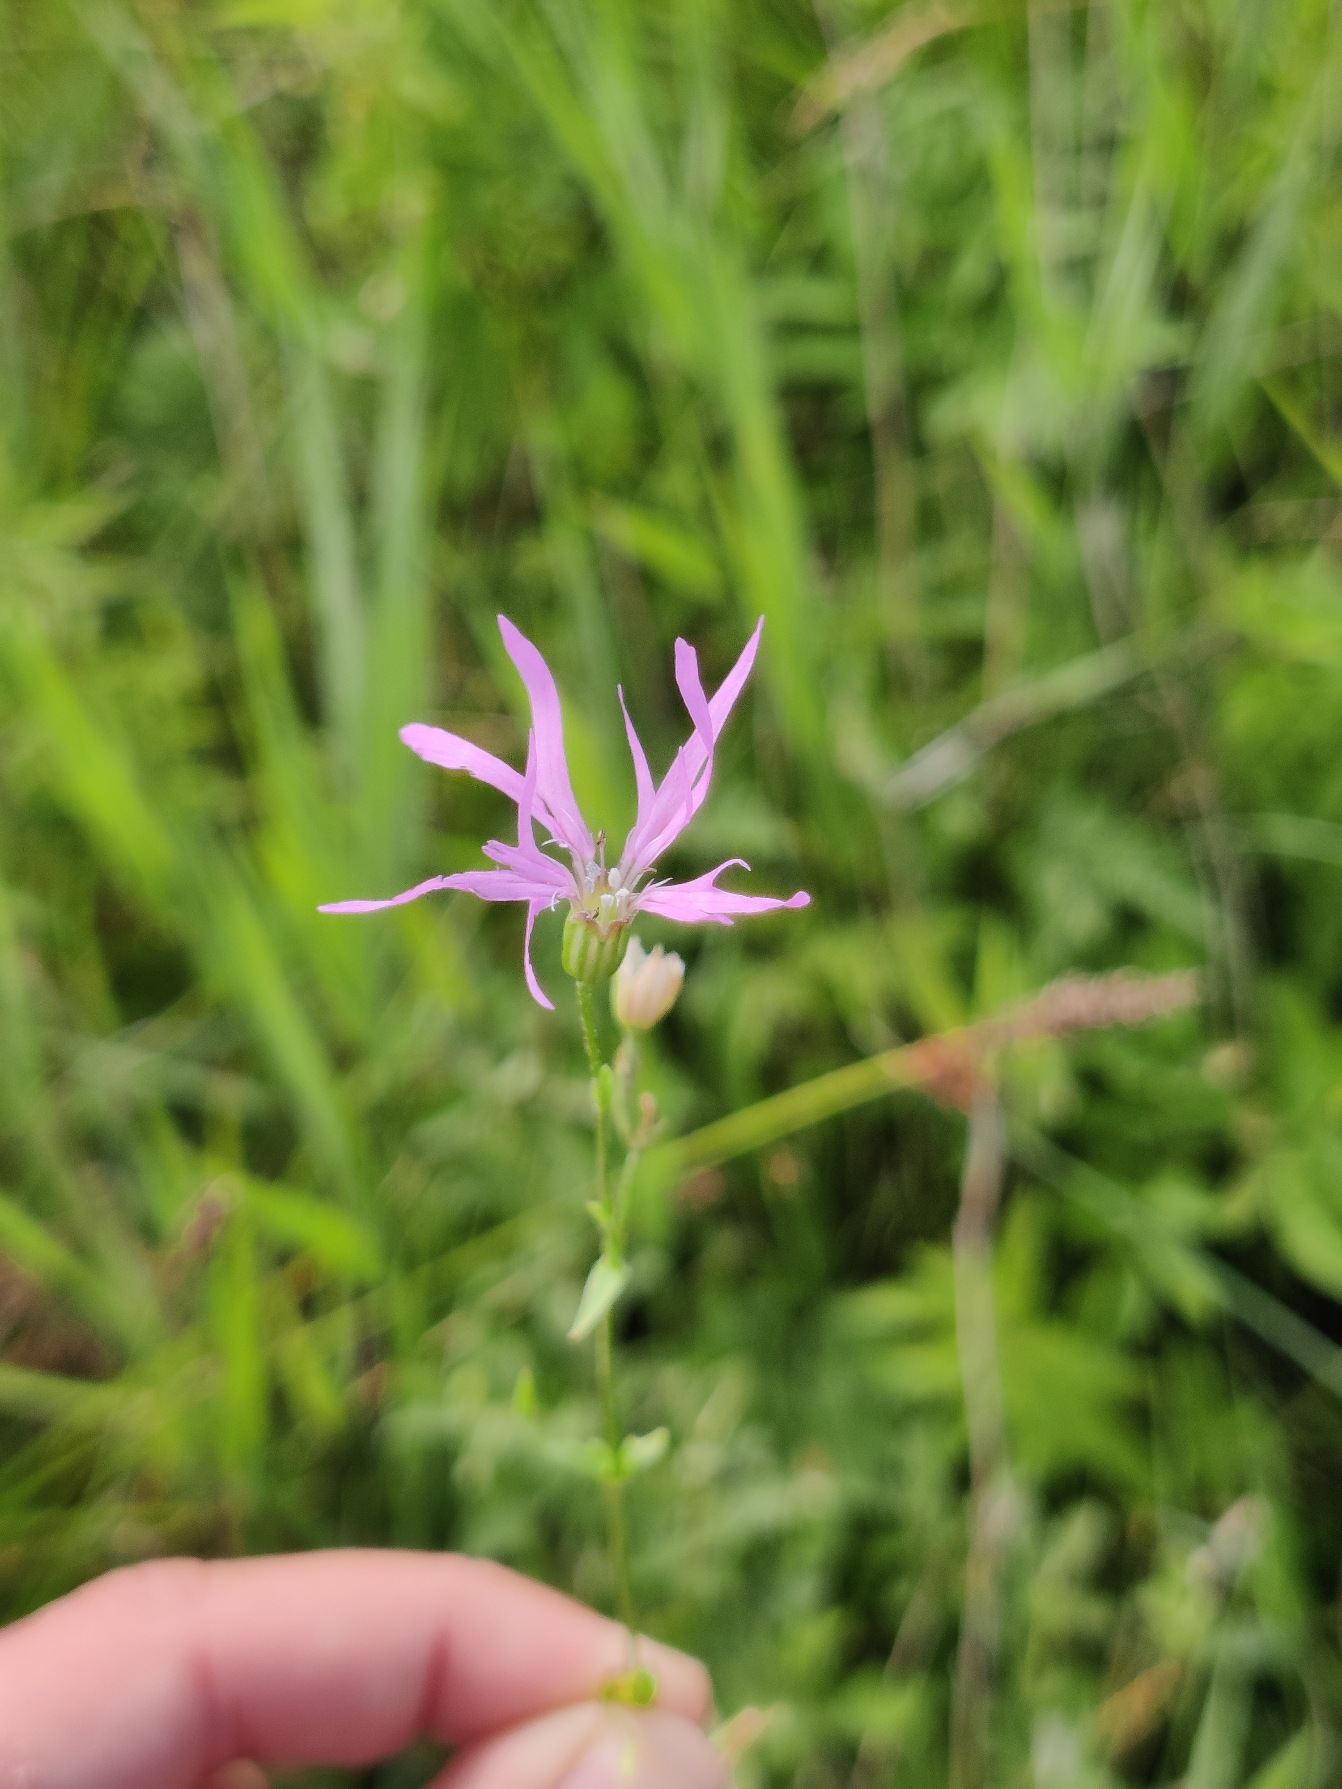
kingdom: Plantae
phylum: Tracheophyta
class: Magnoliopsida
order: Caryophyllales
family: Caryophyllaceae
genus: Silene
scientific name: Silene flos-cuculi
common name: Trævlekrone
